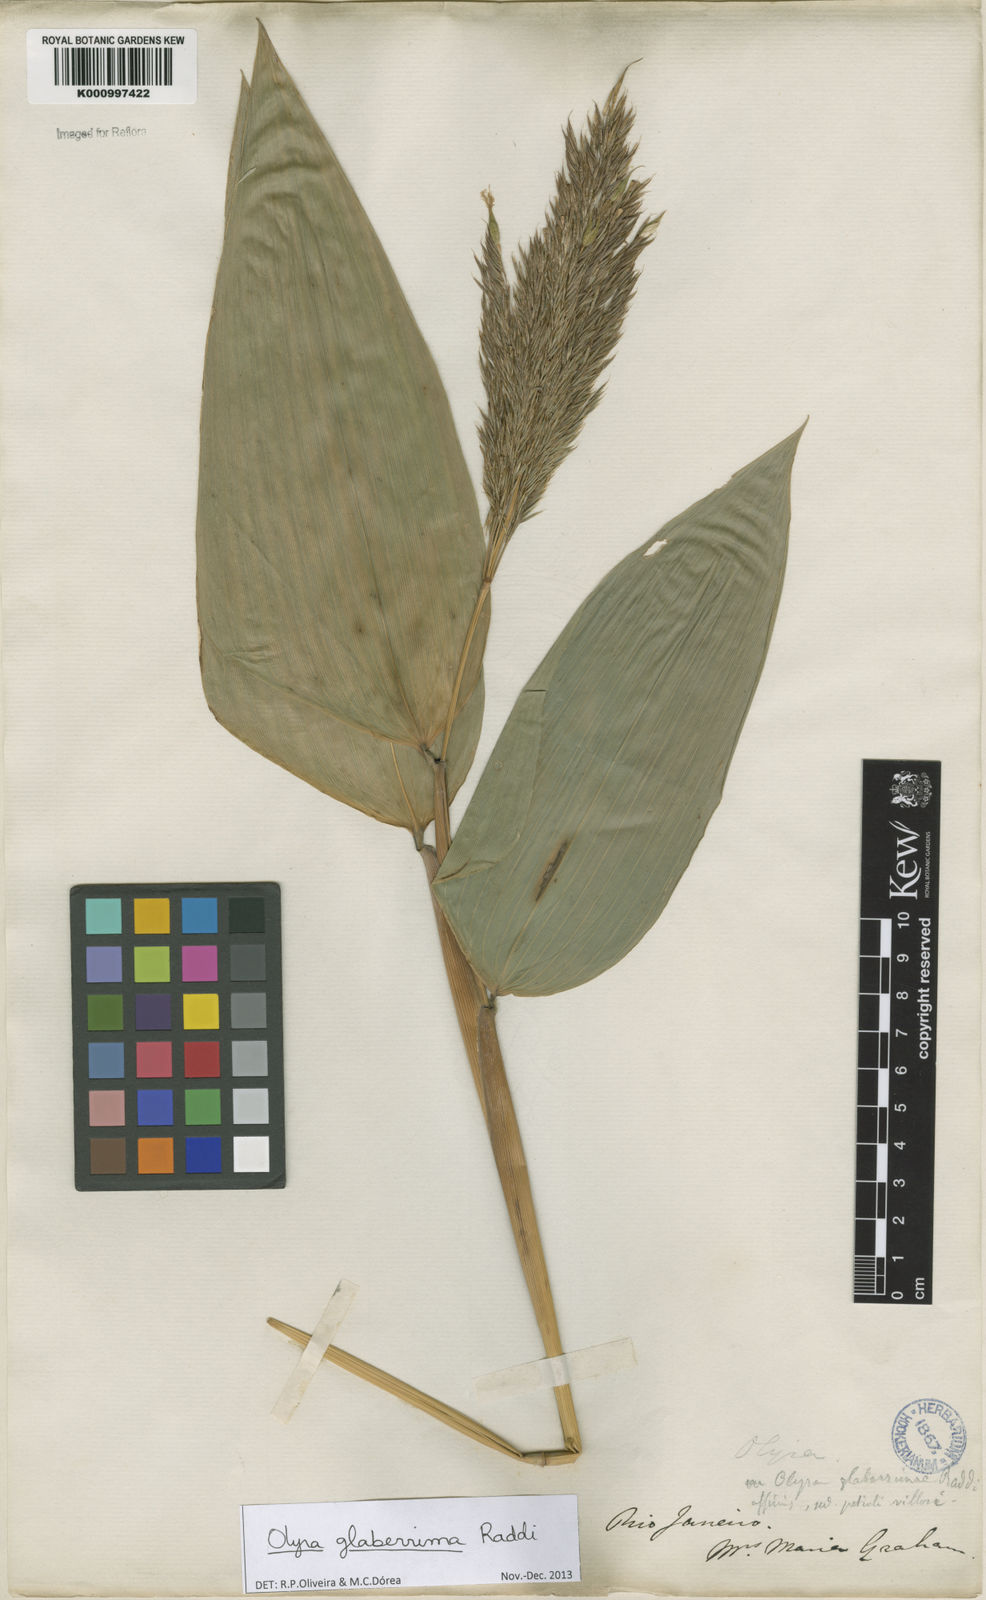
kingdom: Plantae
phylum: Tracheophyta
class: Liliopsida
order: Poales
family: Poaceae
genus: Olyra
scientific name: Olyra glaberrima
